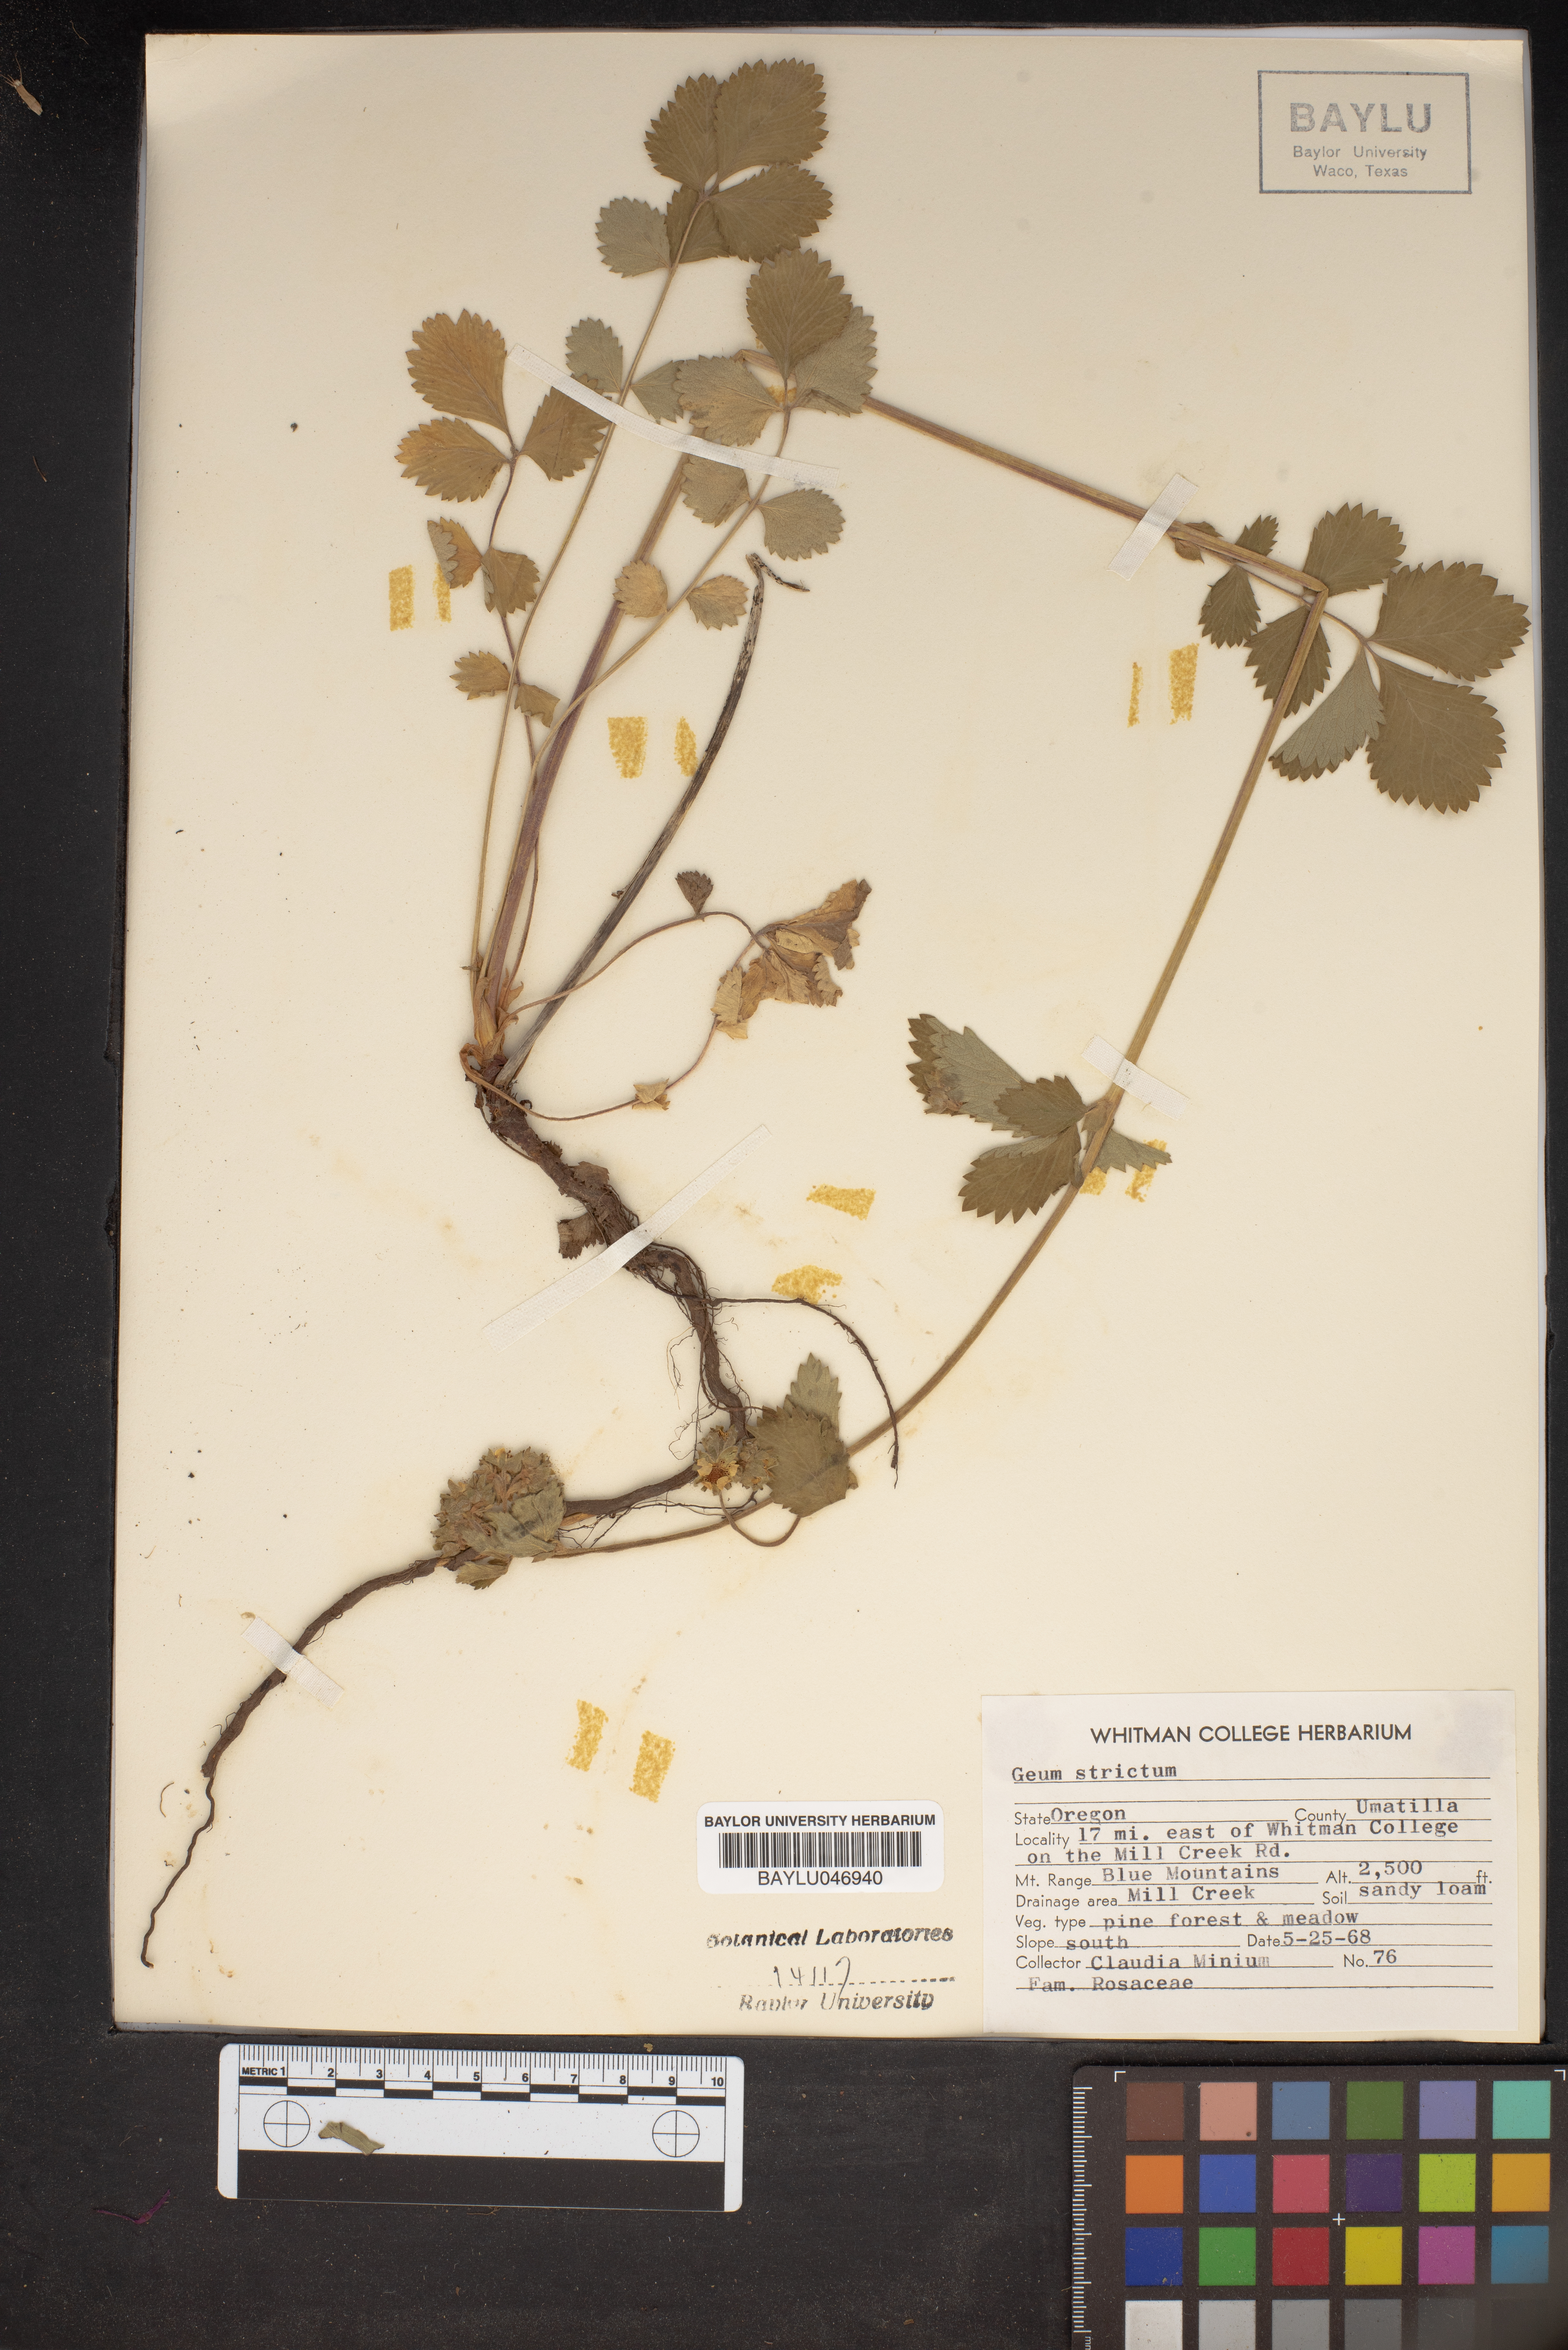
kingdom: Plantae
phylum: Tracheophyta
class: Magnoliopsida
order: Rosales
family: Rosaceae
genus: Geum
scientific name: Geum aleppicum
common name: Yellow avens
